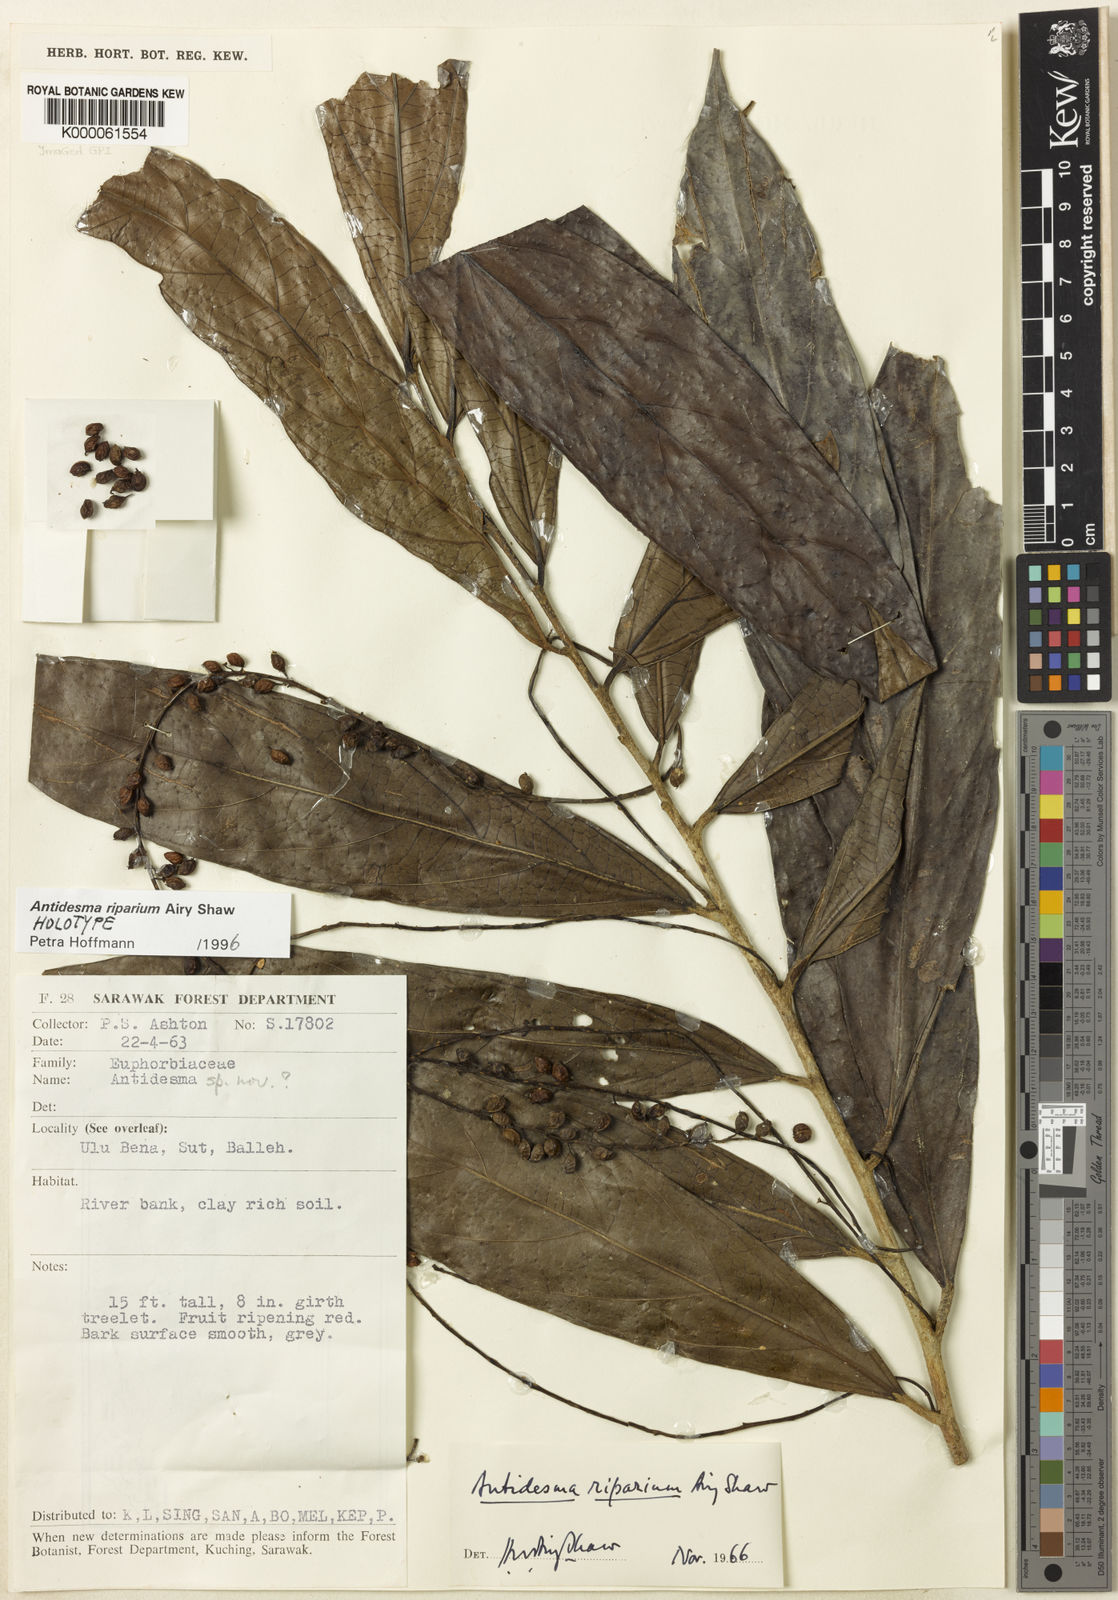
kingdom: Plantae
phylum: Tracheophyta
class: Magnoliopsida
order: Malpighiales
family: Phyllanthaceae
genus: Antidesma
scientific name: Antidesma riparium
